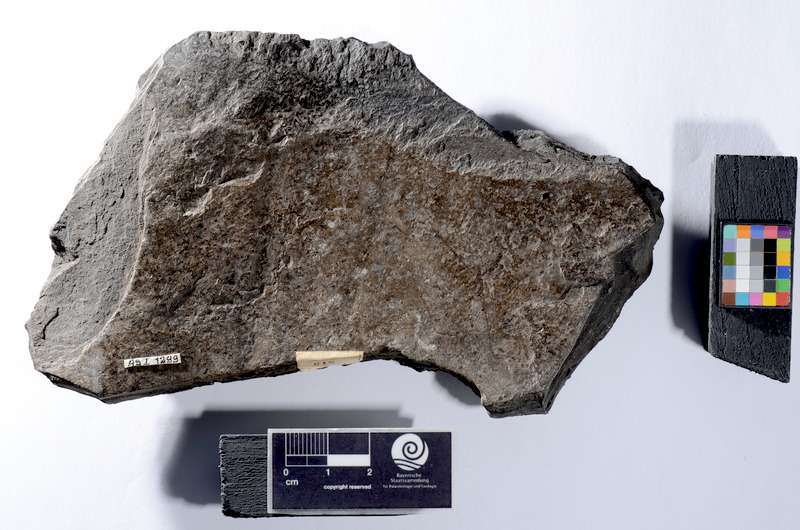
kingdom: Animalia
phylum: Chordata
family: Colobodontidae
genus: Colobodus
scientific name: Colobodus Semionotus latus
